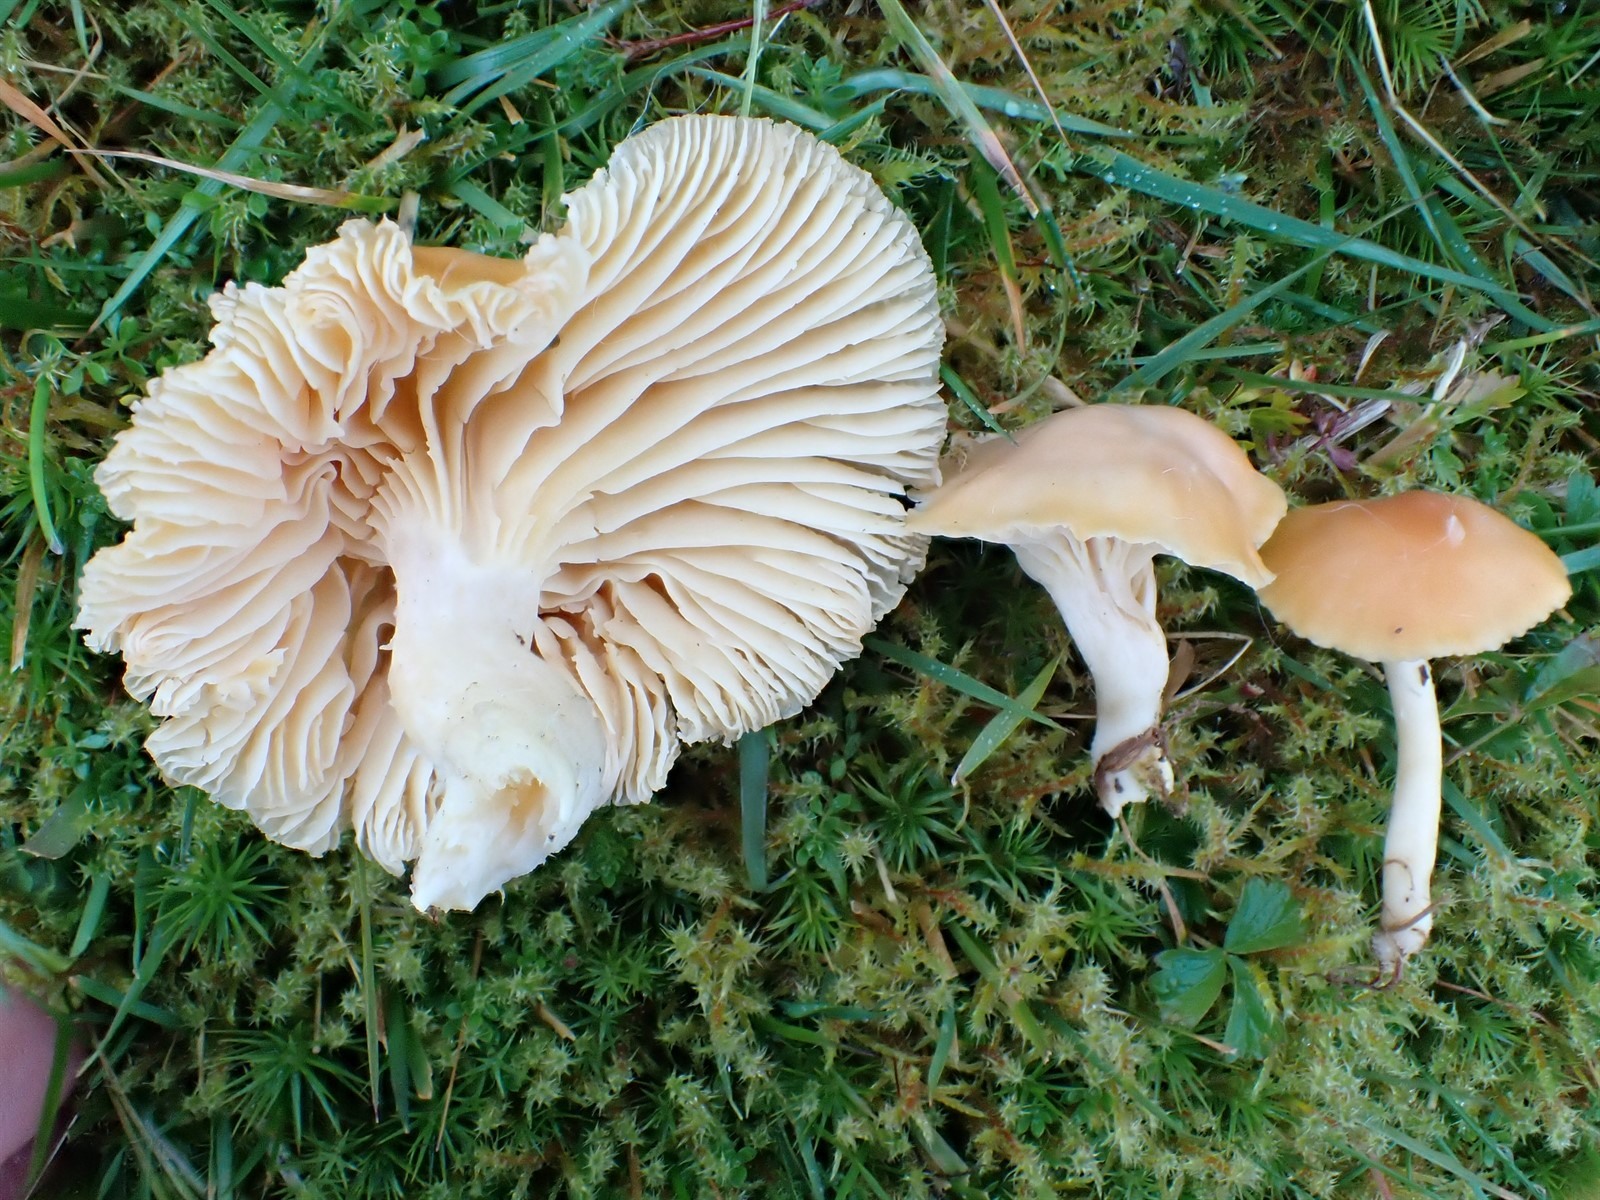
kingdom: Fungi
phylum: Basidiomycota
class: Agaricomycetes
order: Agaricales
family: Hygrophoraceae
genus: Cuphophyllus
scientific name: Cuphophyllus pratensis
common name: Meadow waxcap
